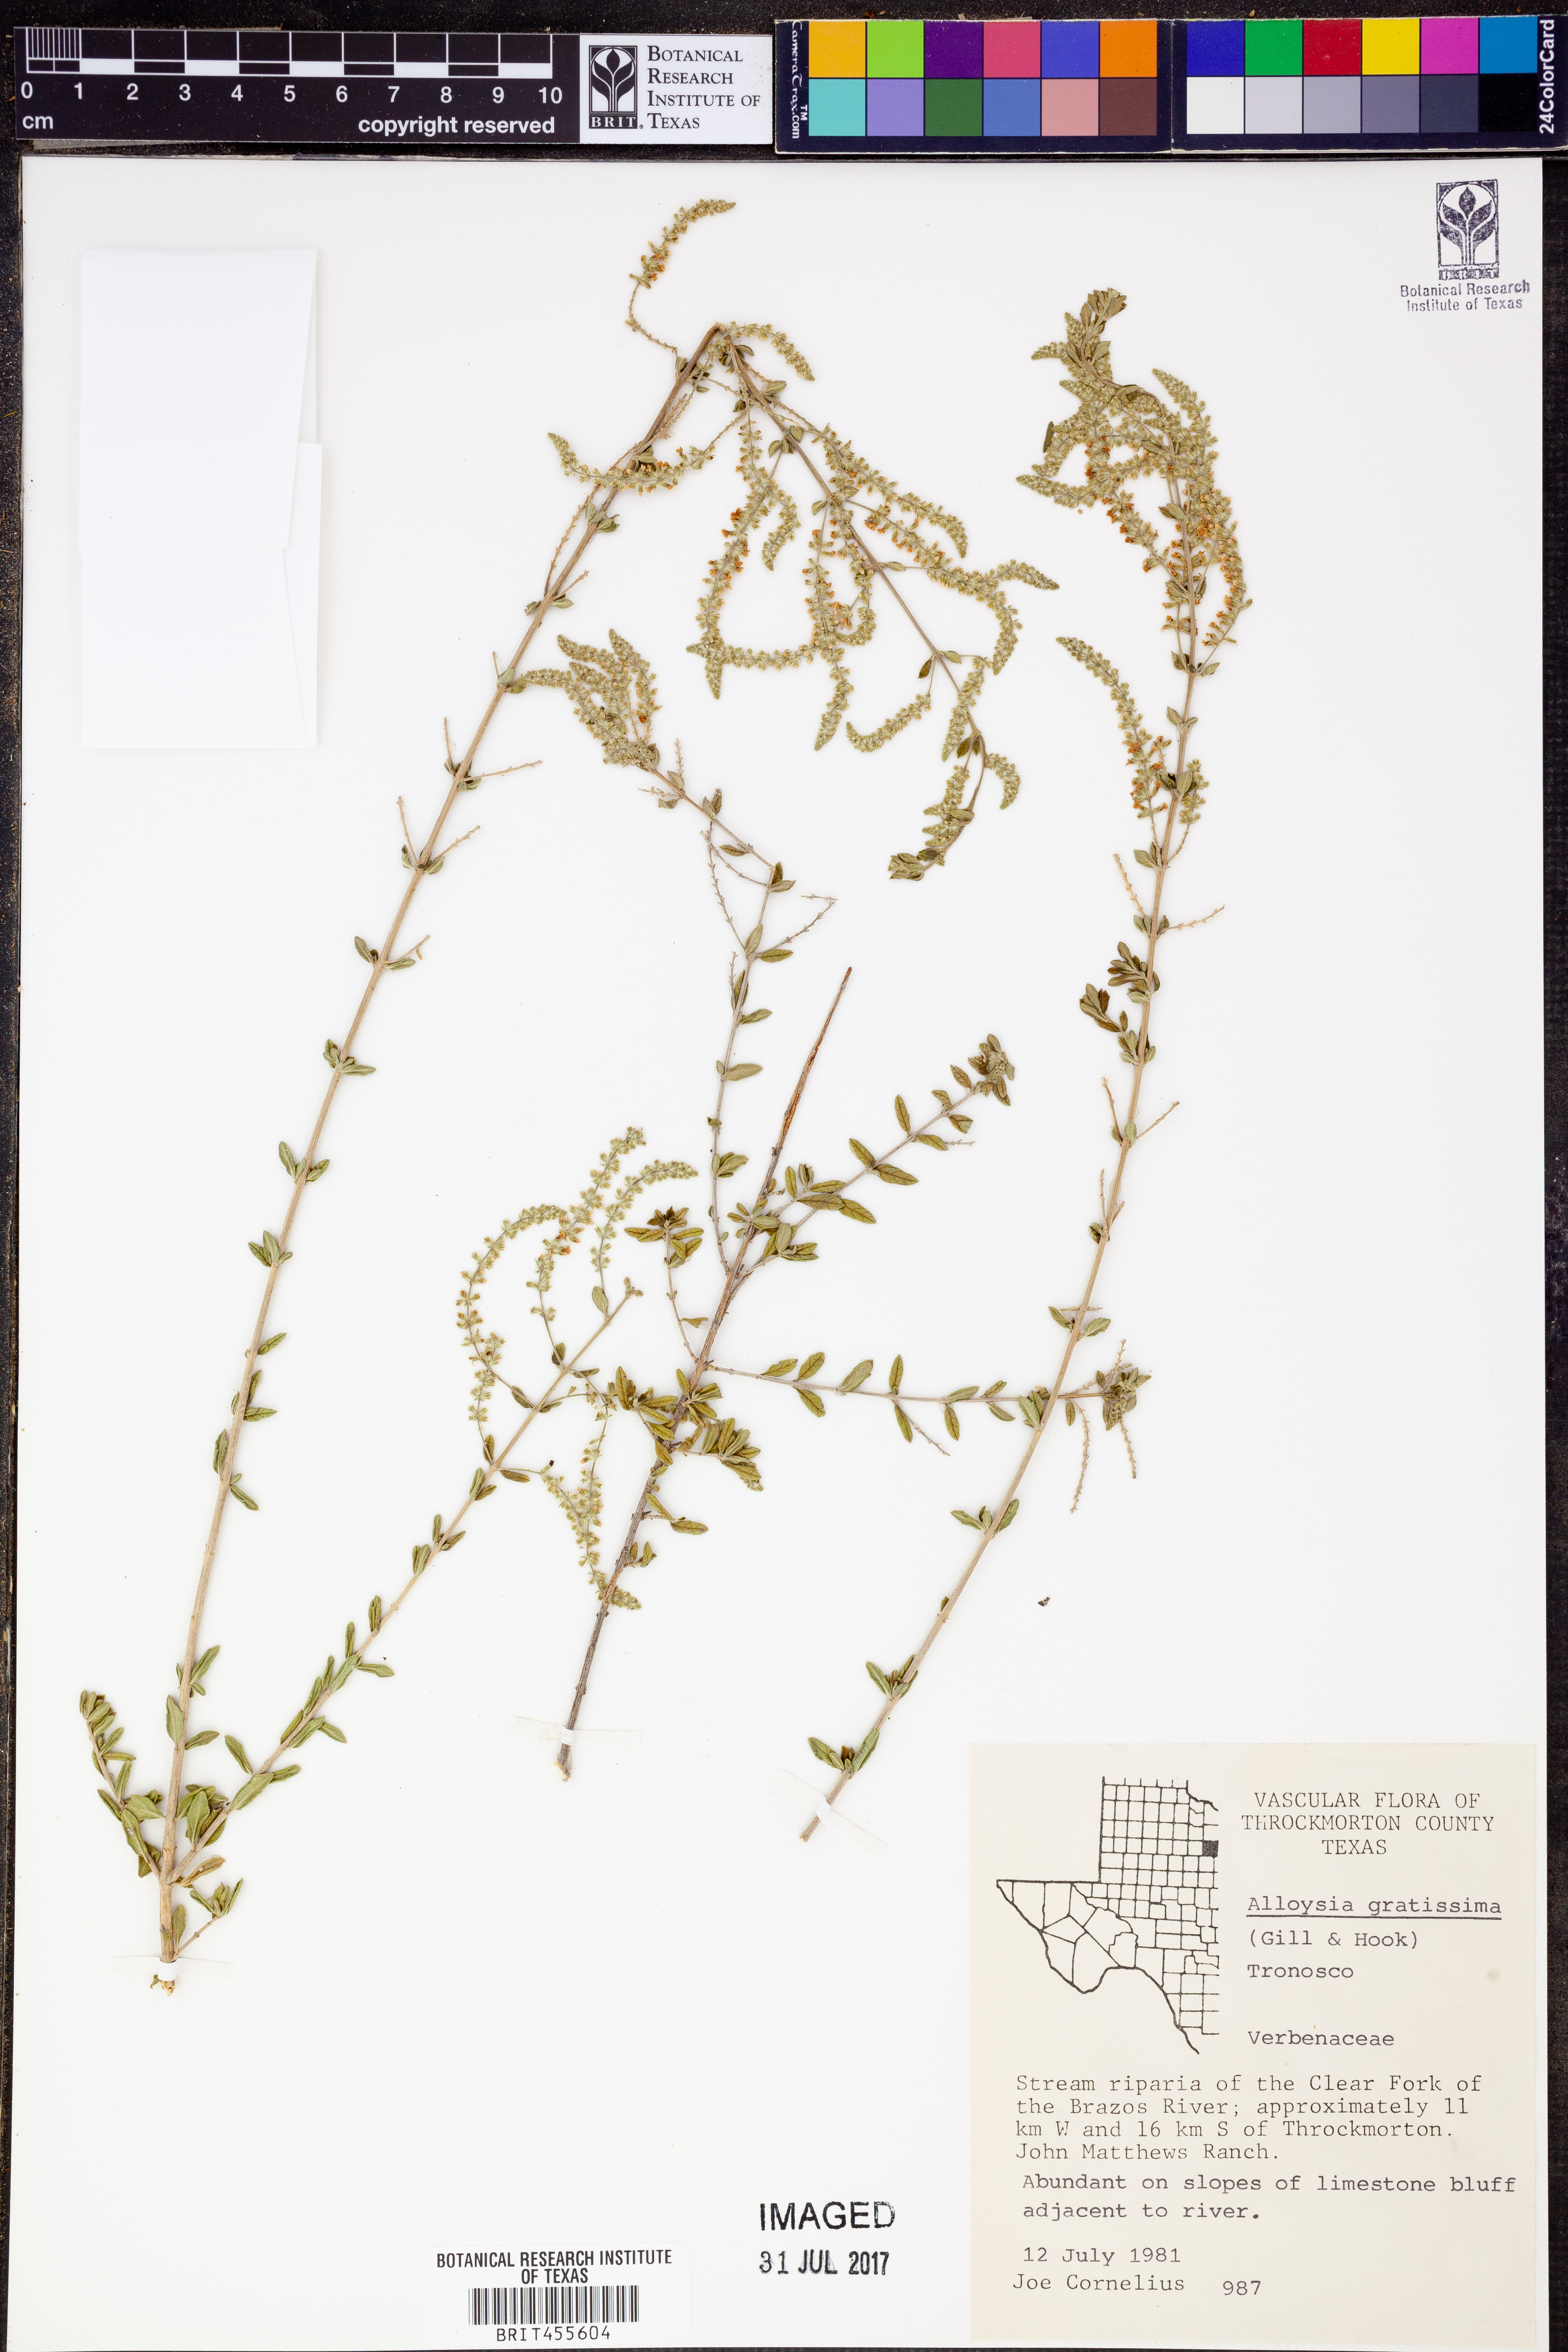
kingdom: Plantae
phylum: Tracheophyta
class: Magnoliopsida
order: Lamiales
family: Verbenaceae
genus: Aloysia
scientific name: Aloysia gratissima
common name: Common bee-brush
